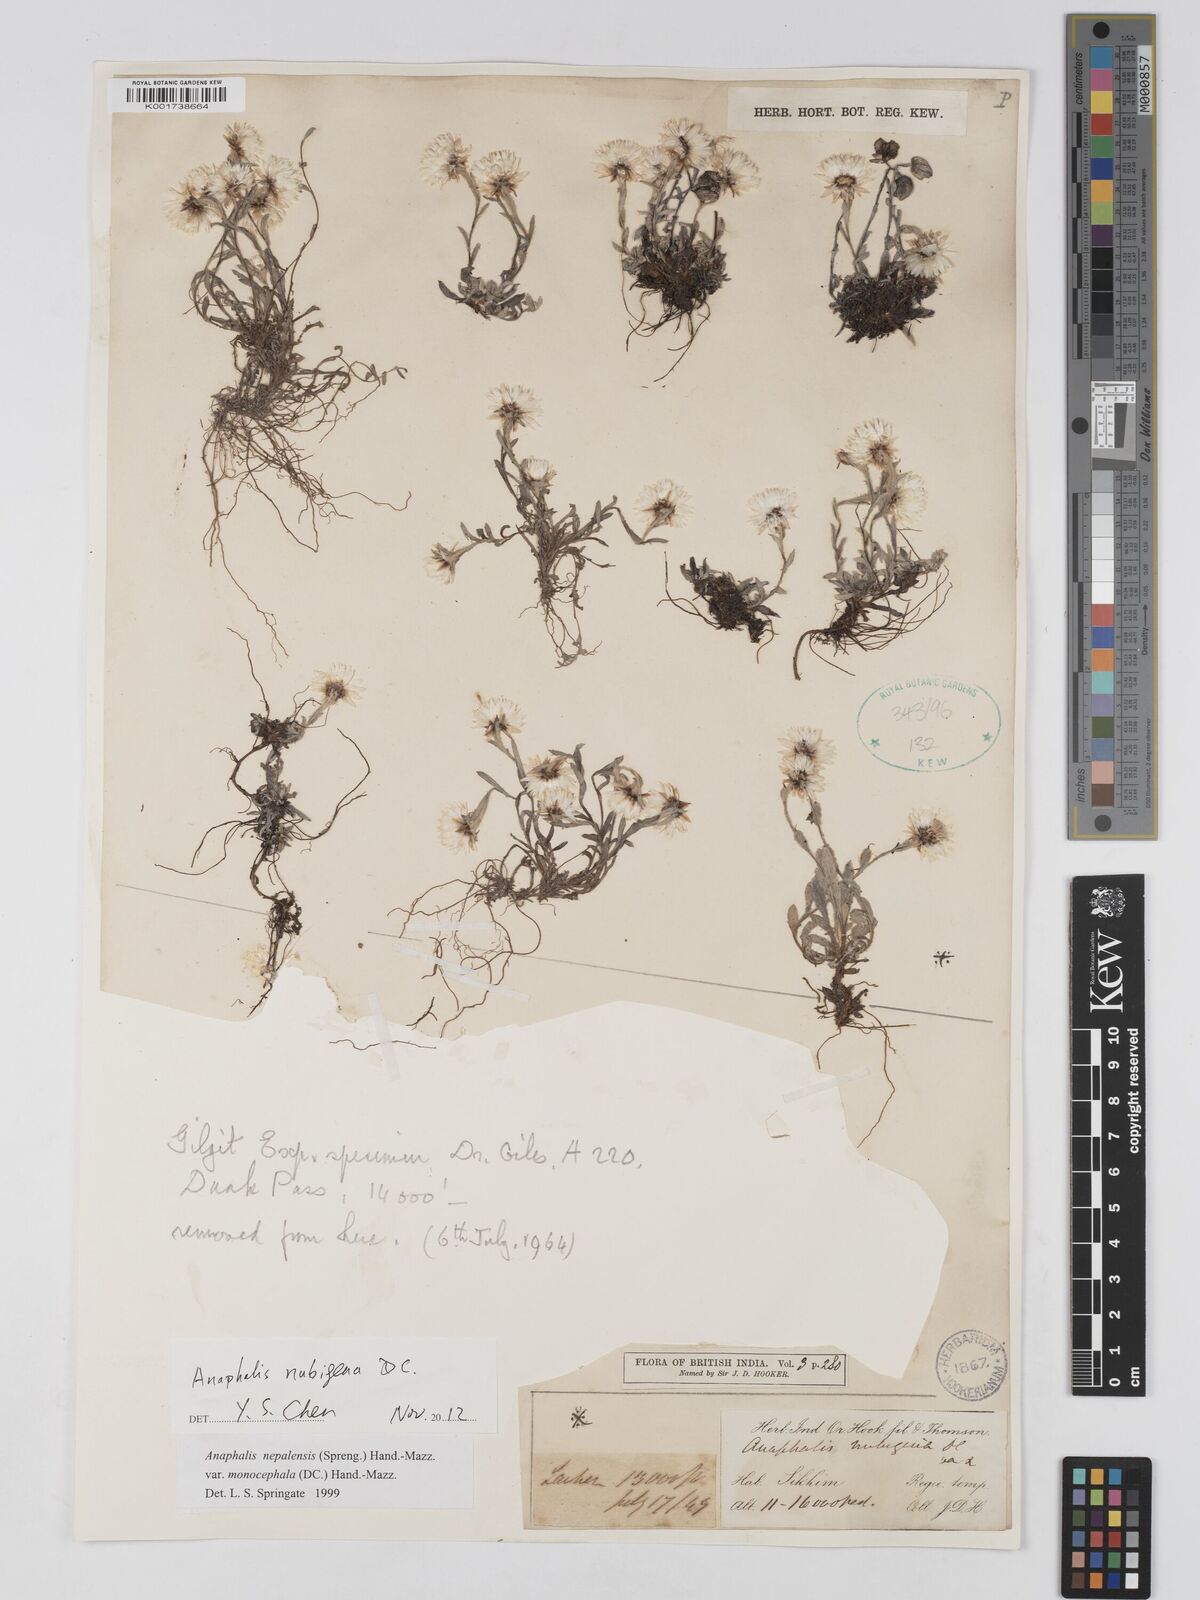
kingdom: Plantae
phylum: Tracheophyta
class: Magnoliopsida
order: Asterales
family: Asteraceae
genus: Anaphalis
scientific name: Anaphalis nepalensis
